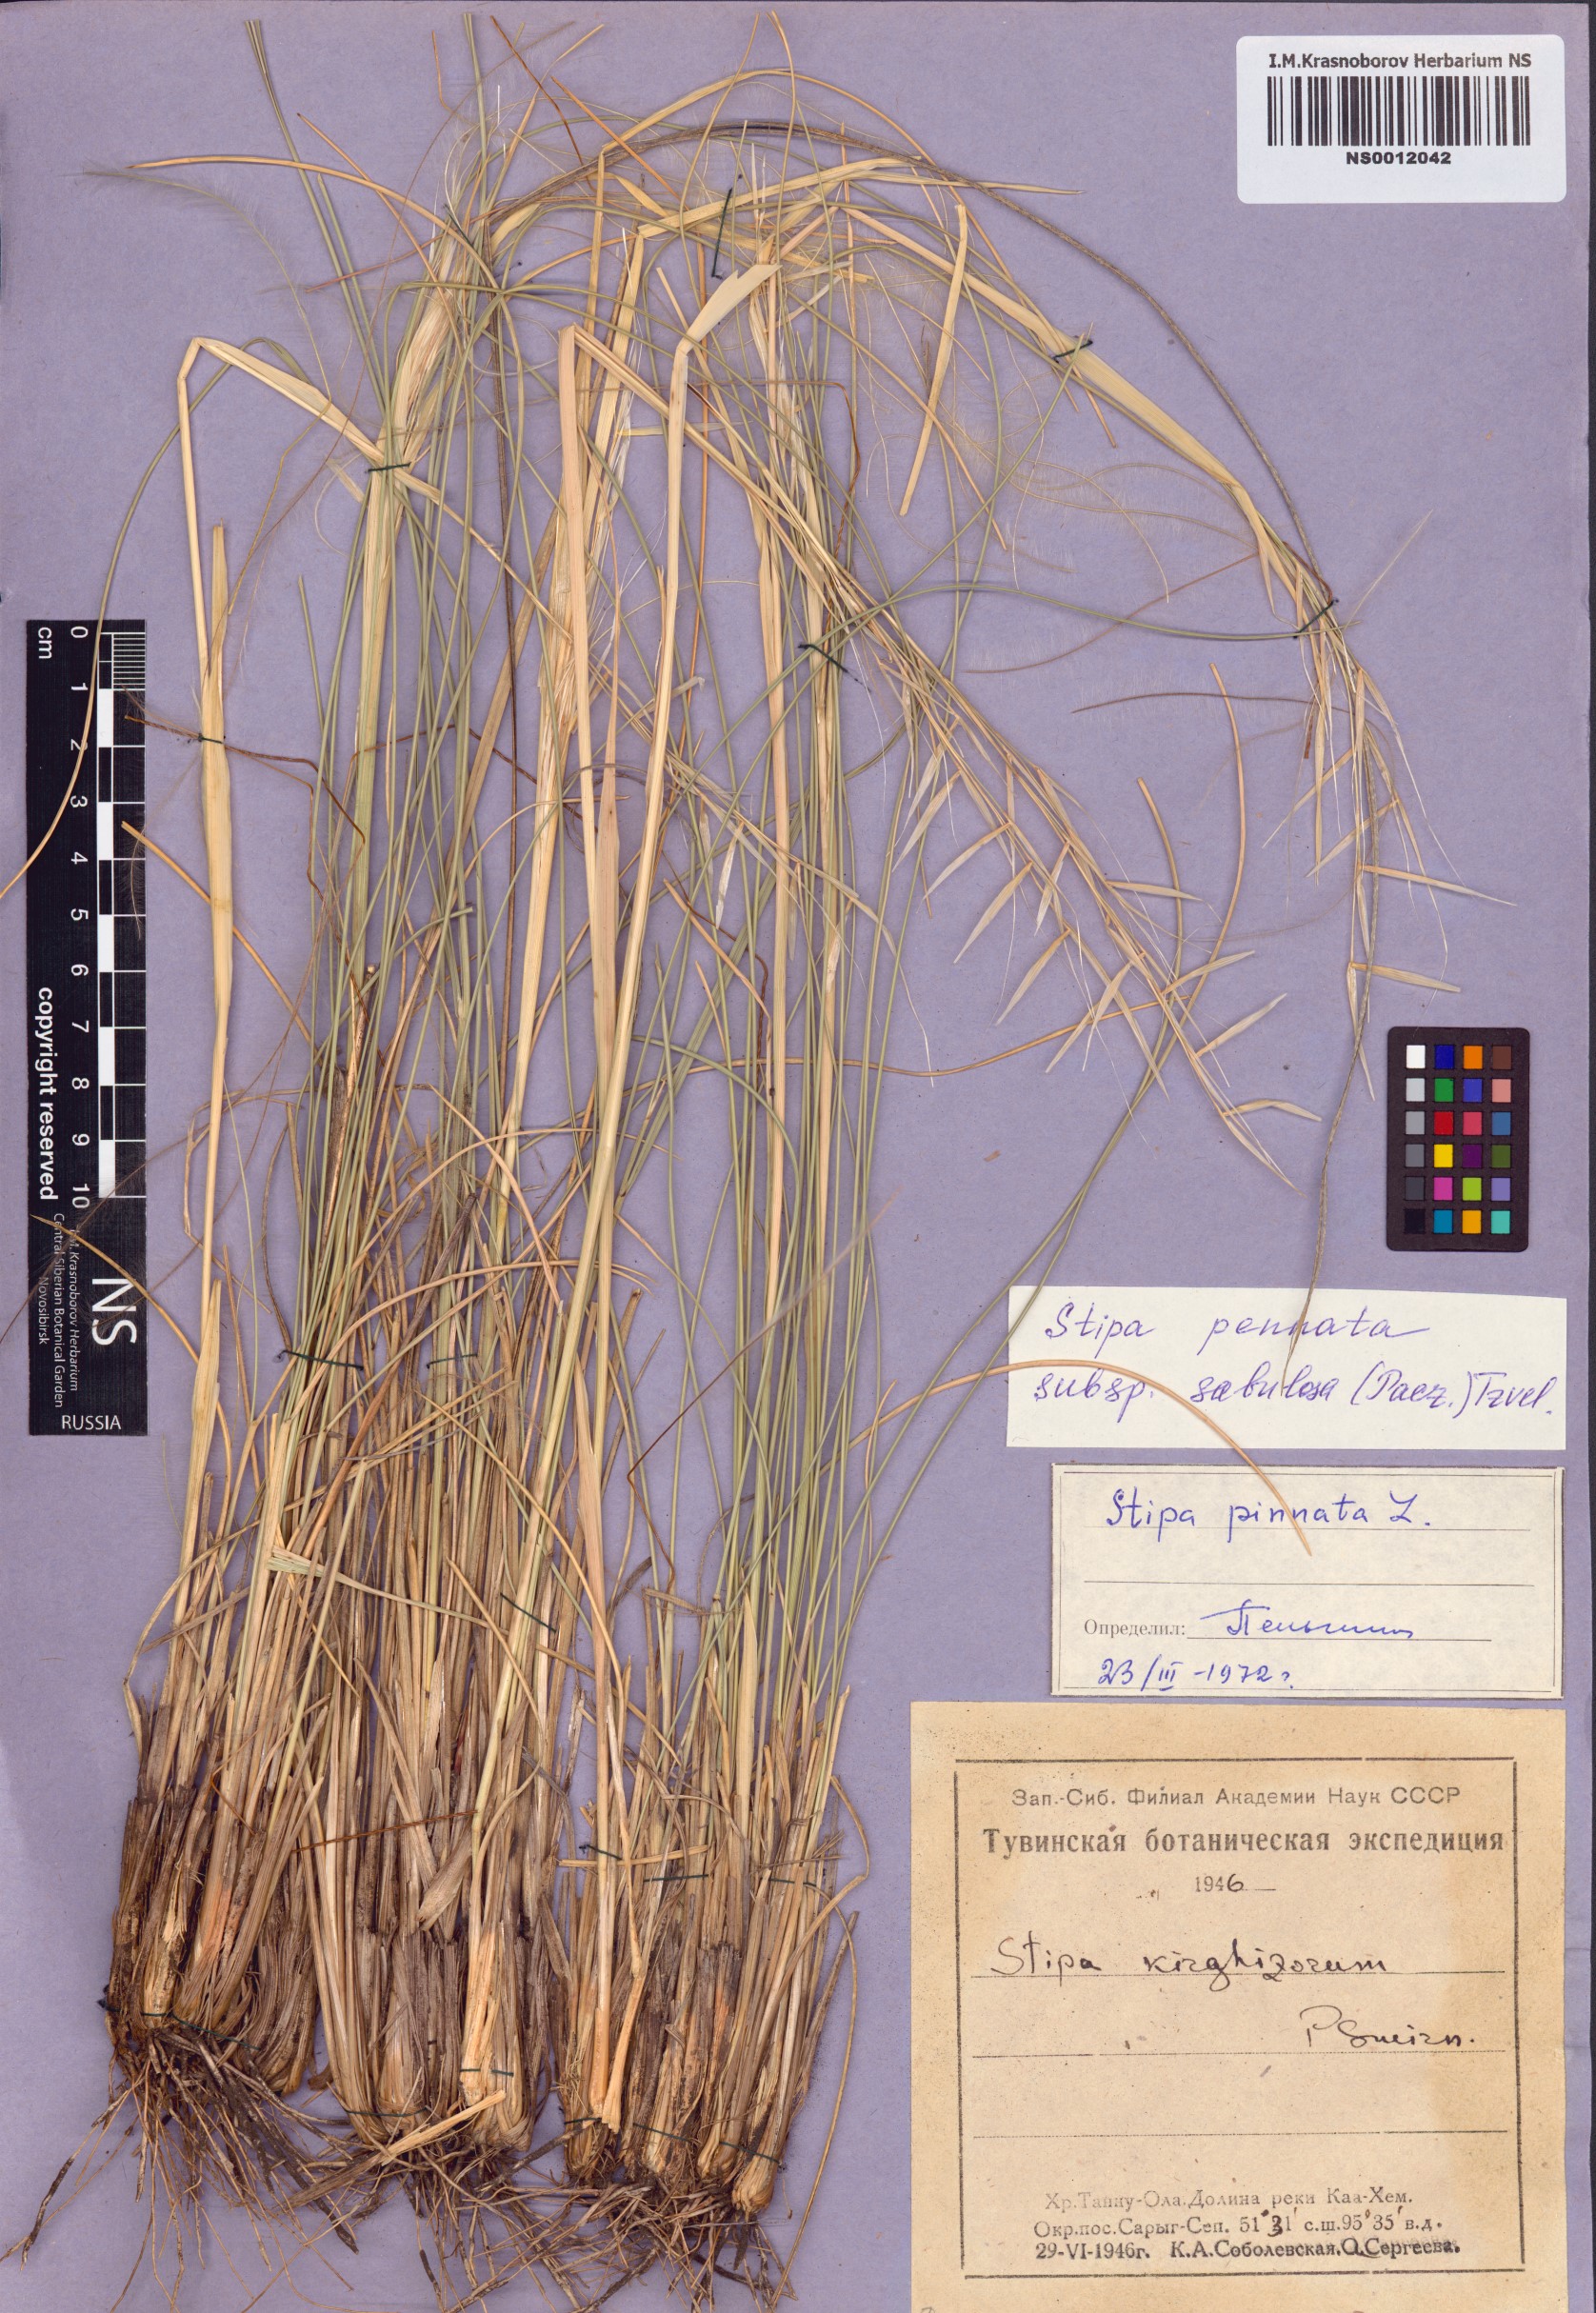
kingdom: Plantae
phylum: Tracheophyta
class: Liliopsida
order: Poales
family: Poaceae
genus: Stipa
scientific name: Stipa borysthenica
